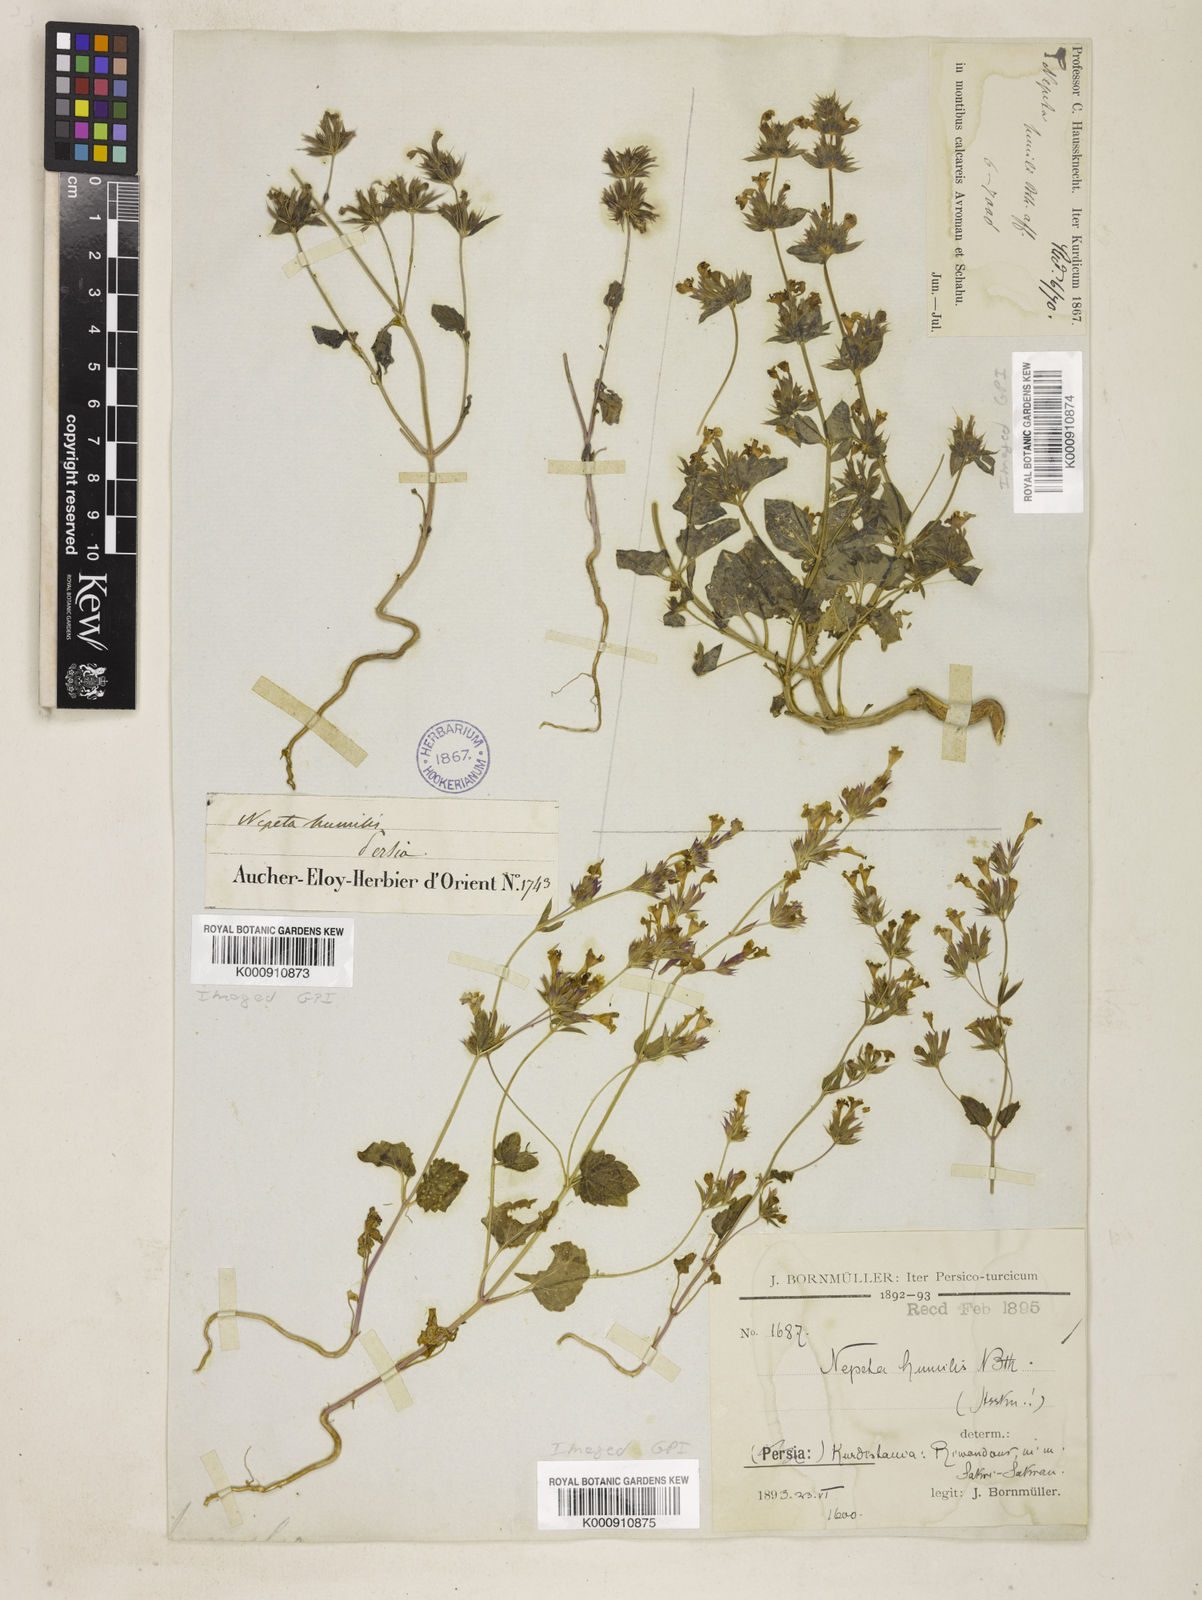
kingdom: Plantae
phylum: Tracheophyta
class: Magnoliopsida
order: Lamiales
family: Lamiaceae
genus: Nepeta
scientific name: Nepeta humilis
